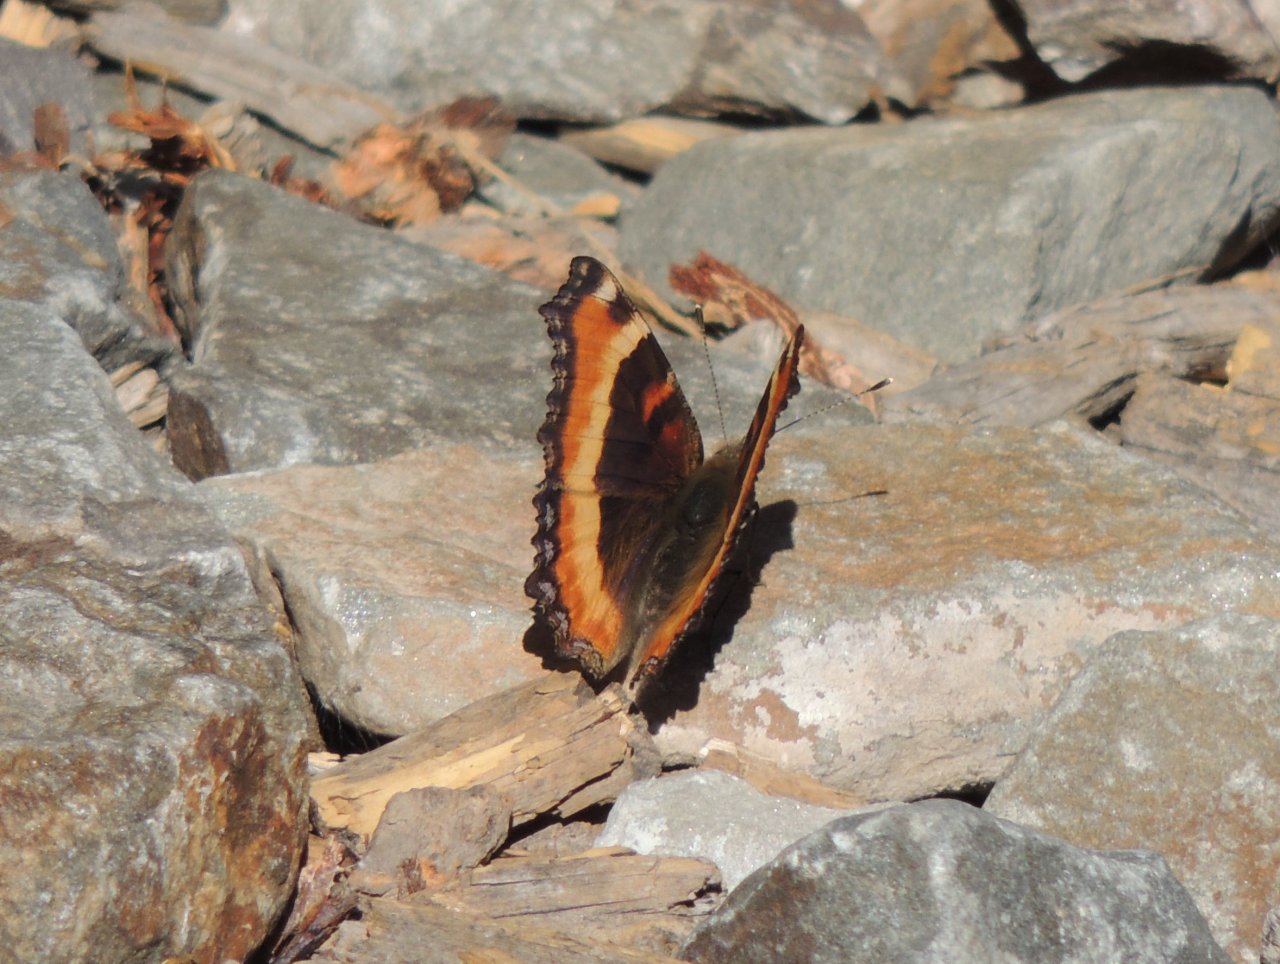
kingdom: Animalia
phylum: Arthropoda
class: Insecta
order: Lepidoptera
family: Nymphalidae
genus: Aglais
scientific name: Aglais milberti
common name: Milbert's Tortoiseshell
